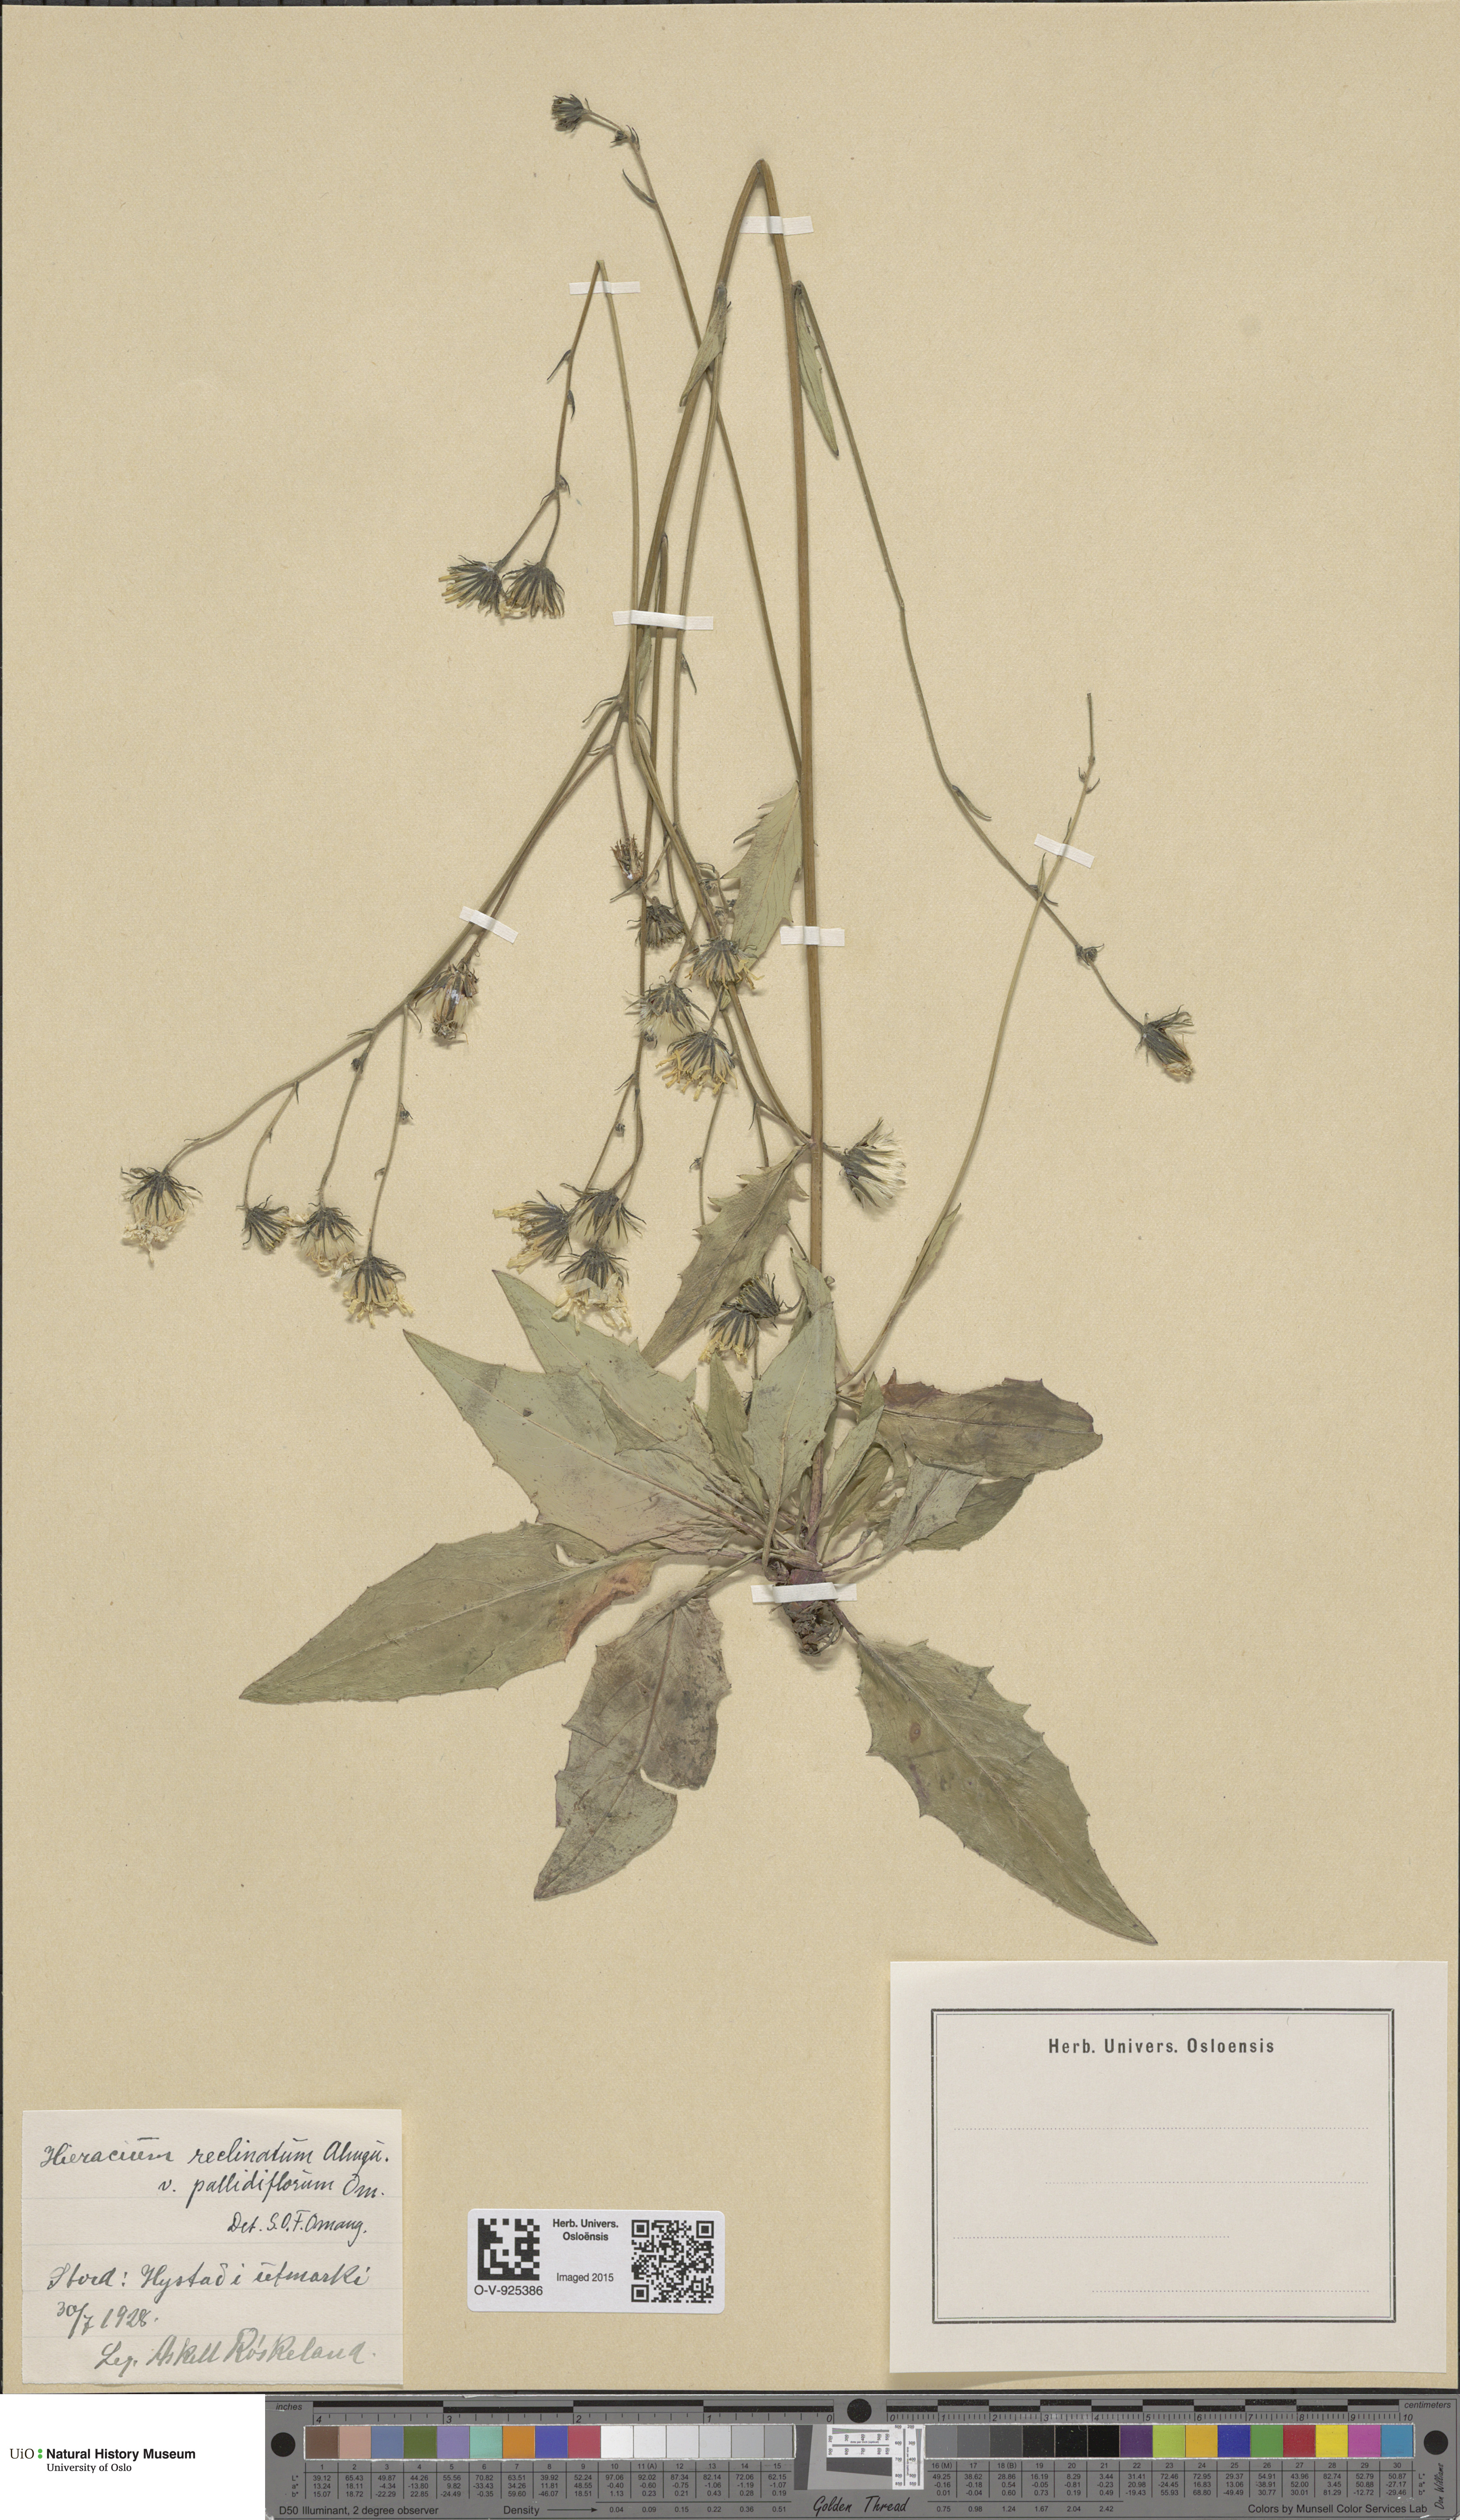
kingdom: Plantae
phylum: Tracheophyta
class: Magnoliopsida
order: Asterales
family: Asteraceae
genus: Hieracium
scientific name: Hieracium caesium
